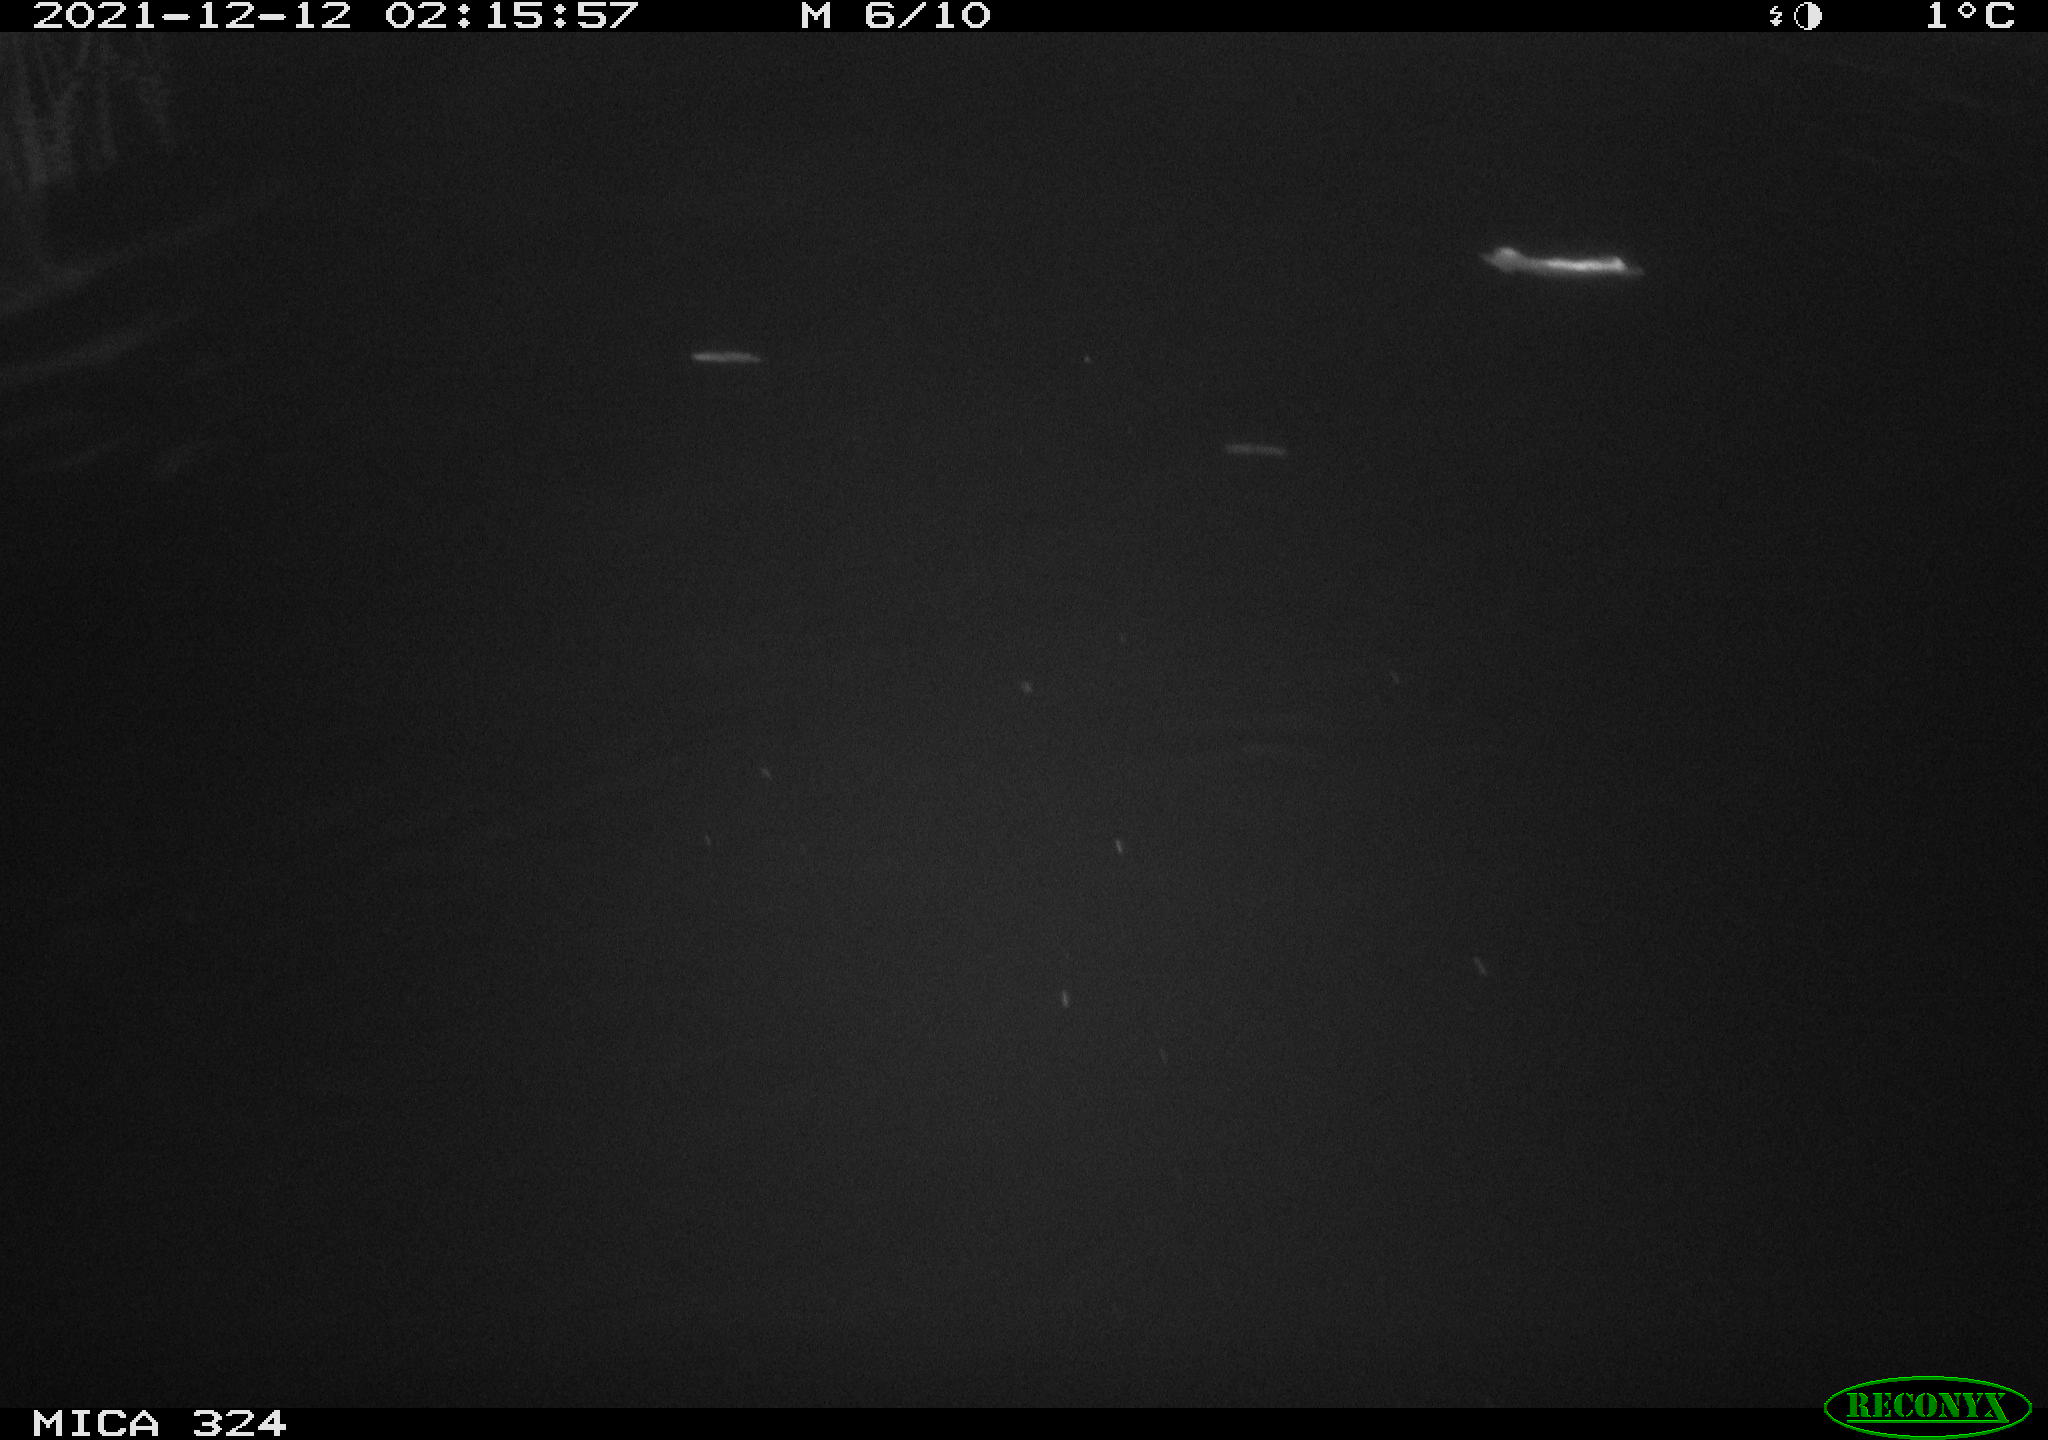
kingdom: Animalia
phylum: Chordata
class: Mammalia
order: Rodentia
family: Cricetidae
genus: Ondatra
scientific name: Ondatra zibethicus
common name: Muskrat
